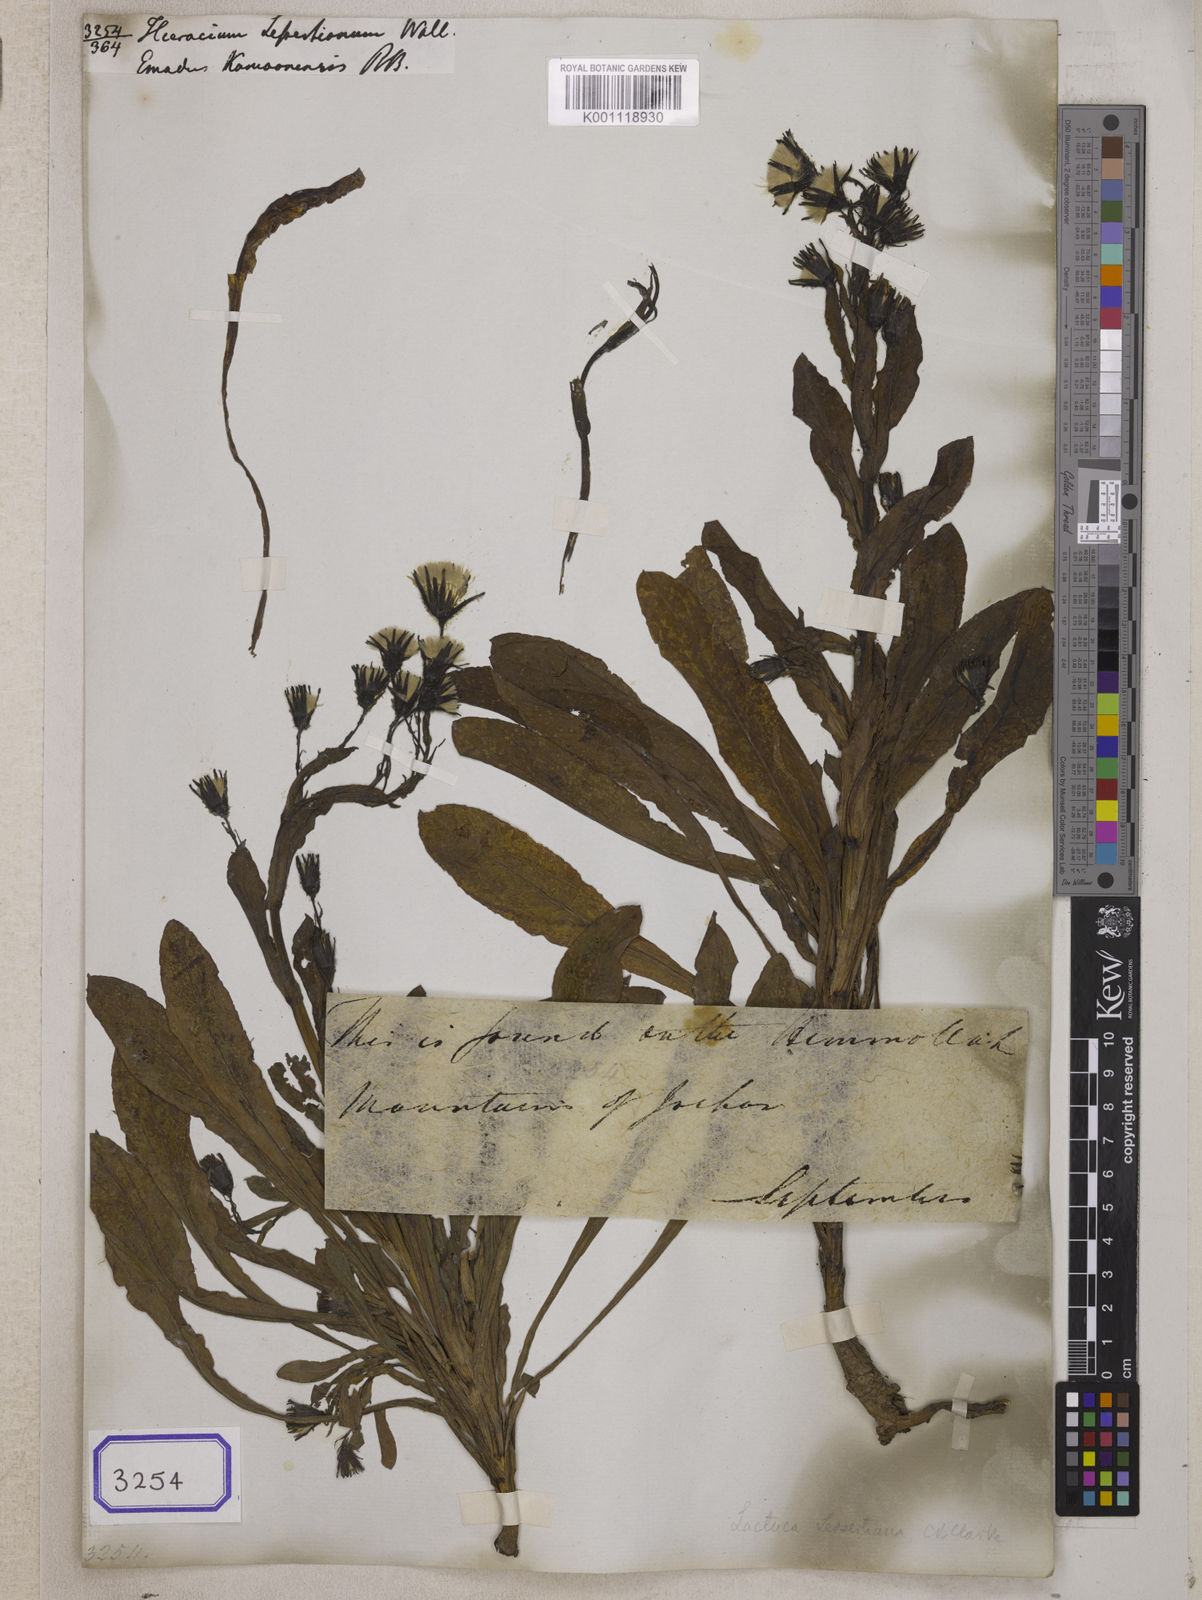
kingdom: Plantae
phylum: Tracheophyta
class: Magnoliopsida
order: Asterales
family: Asteraceae
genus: Melanoseris
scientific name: Melanoseris lessertiana
